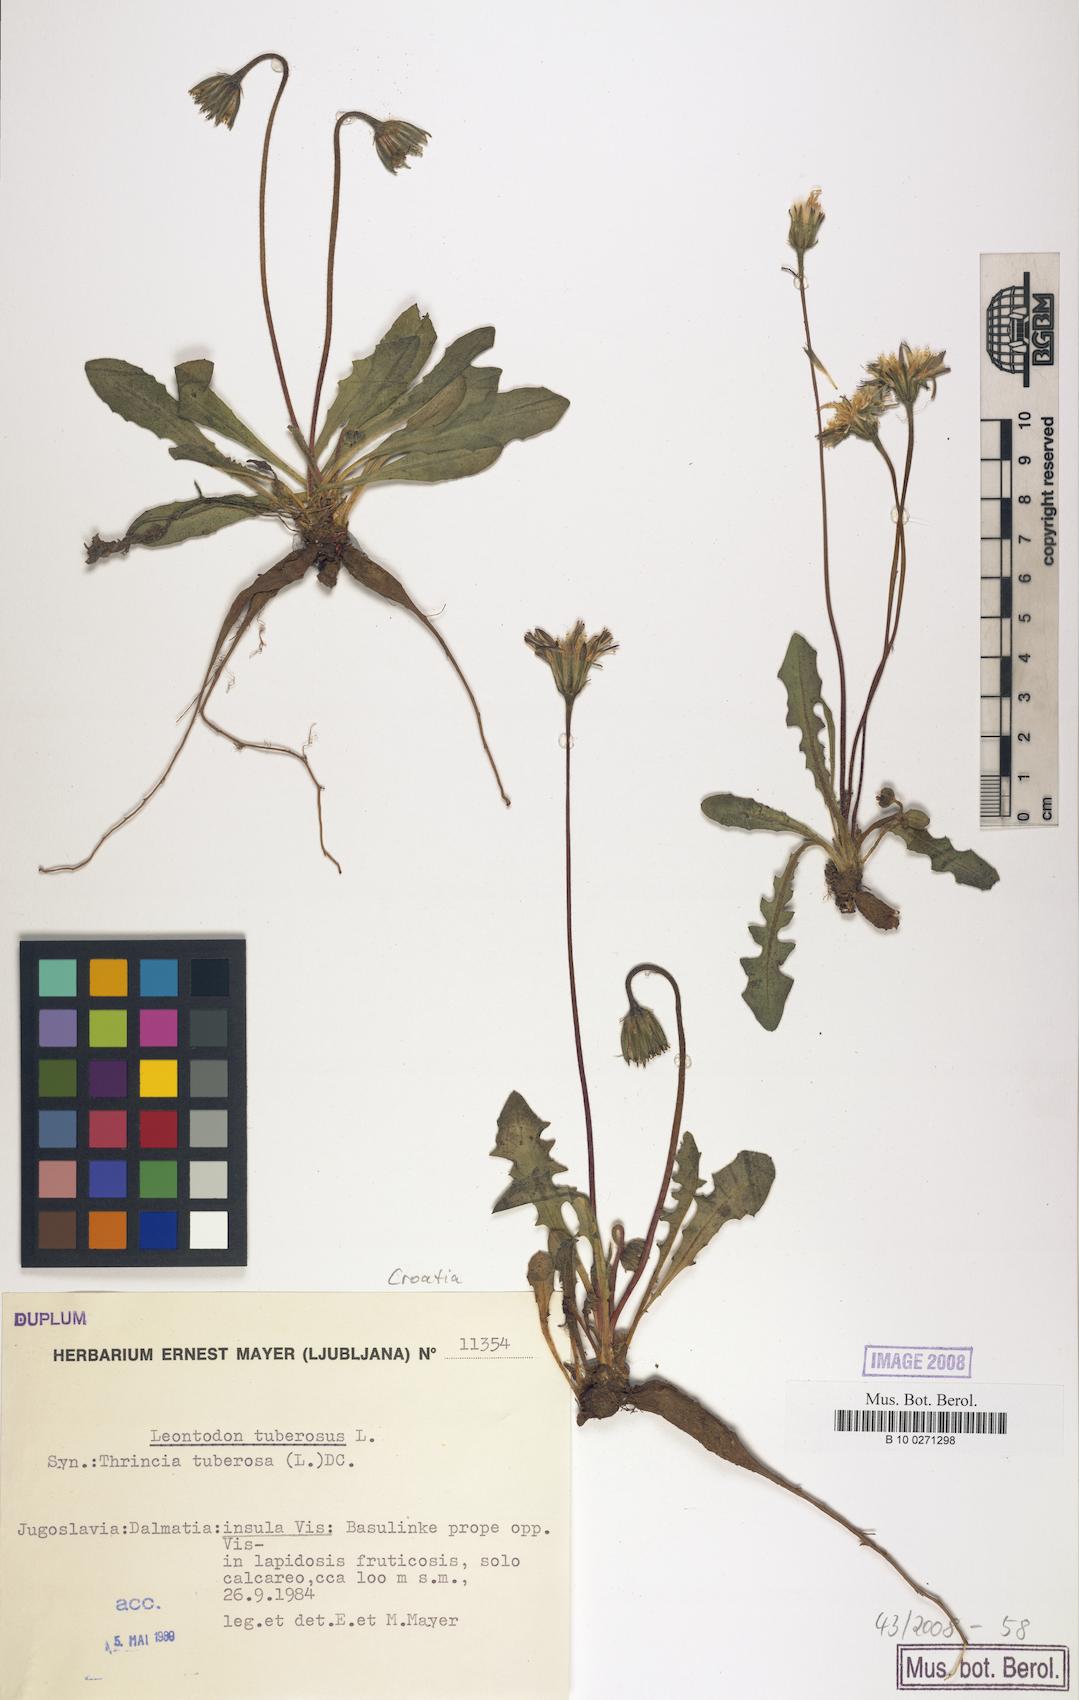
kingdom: Plantae
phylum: Tracheophyta
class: Magnoliopsida
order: Asterales
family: Asteraceae
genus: Leontodon
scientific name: Leontodon tuberosus
